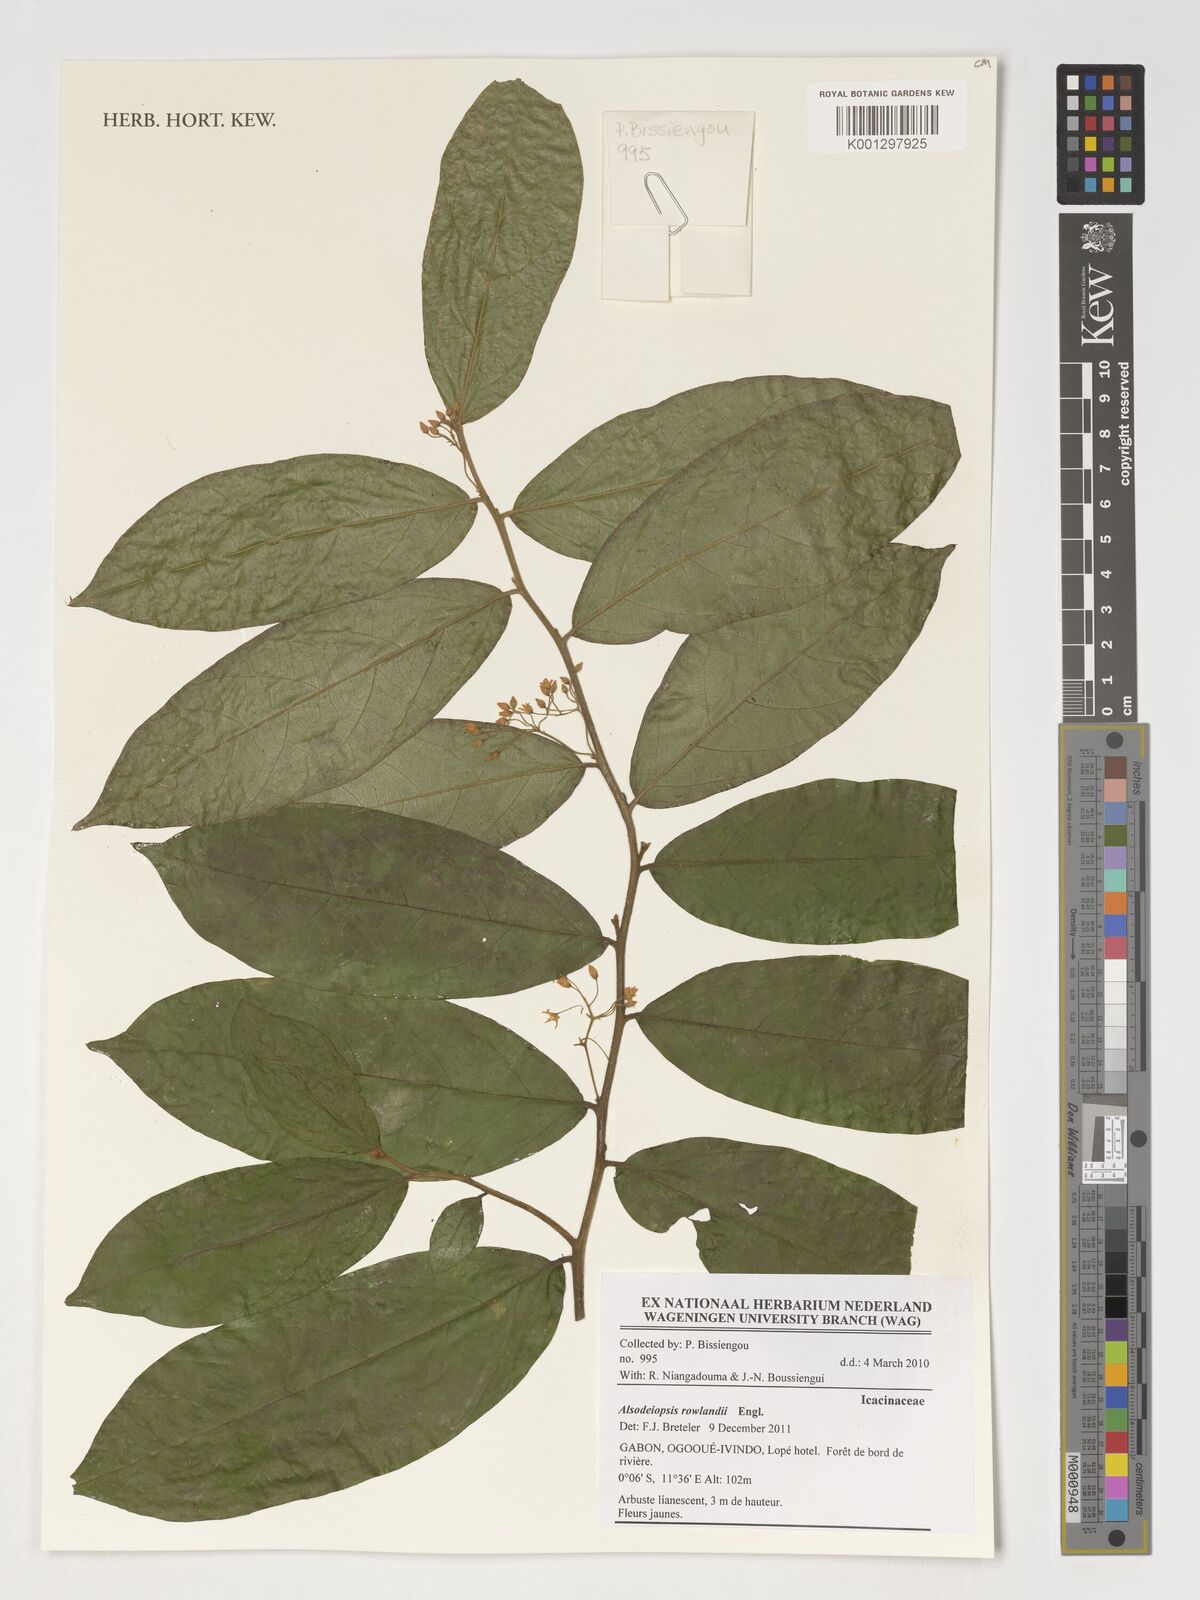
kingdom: Plantae
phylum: Tracheophyta
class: Magnoliopsida
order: Icacinales
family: Icacinaceae
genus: Alsodeiopsis
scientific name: Alsodeiopsis rowlandii
